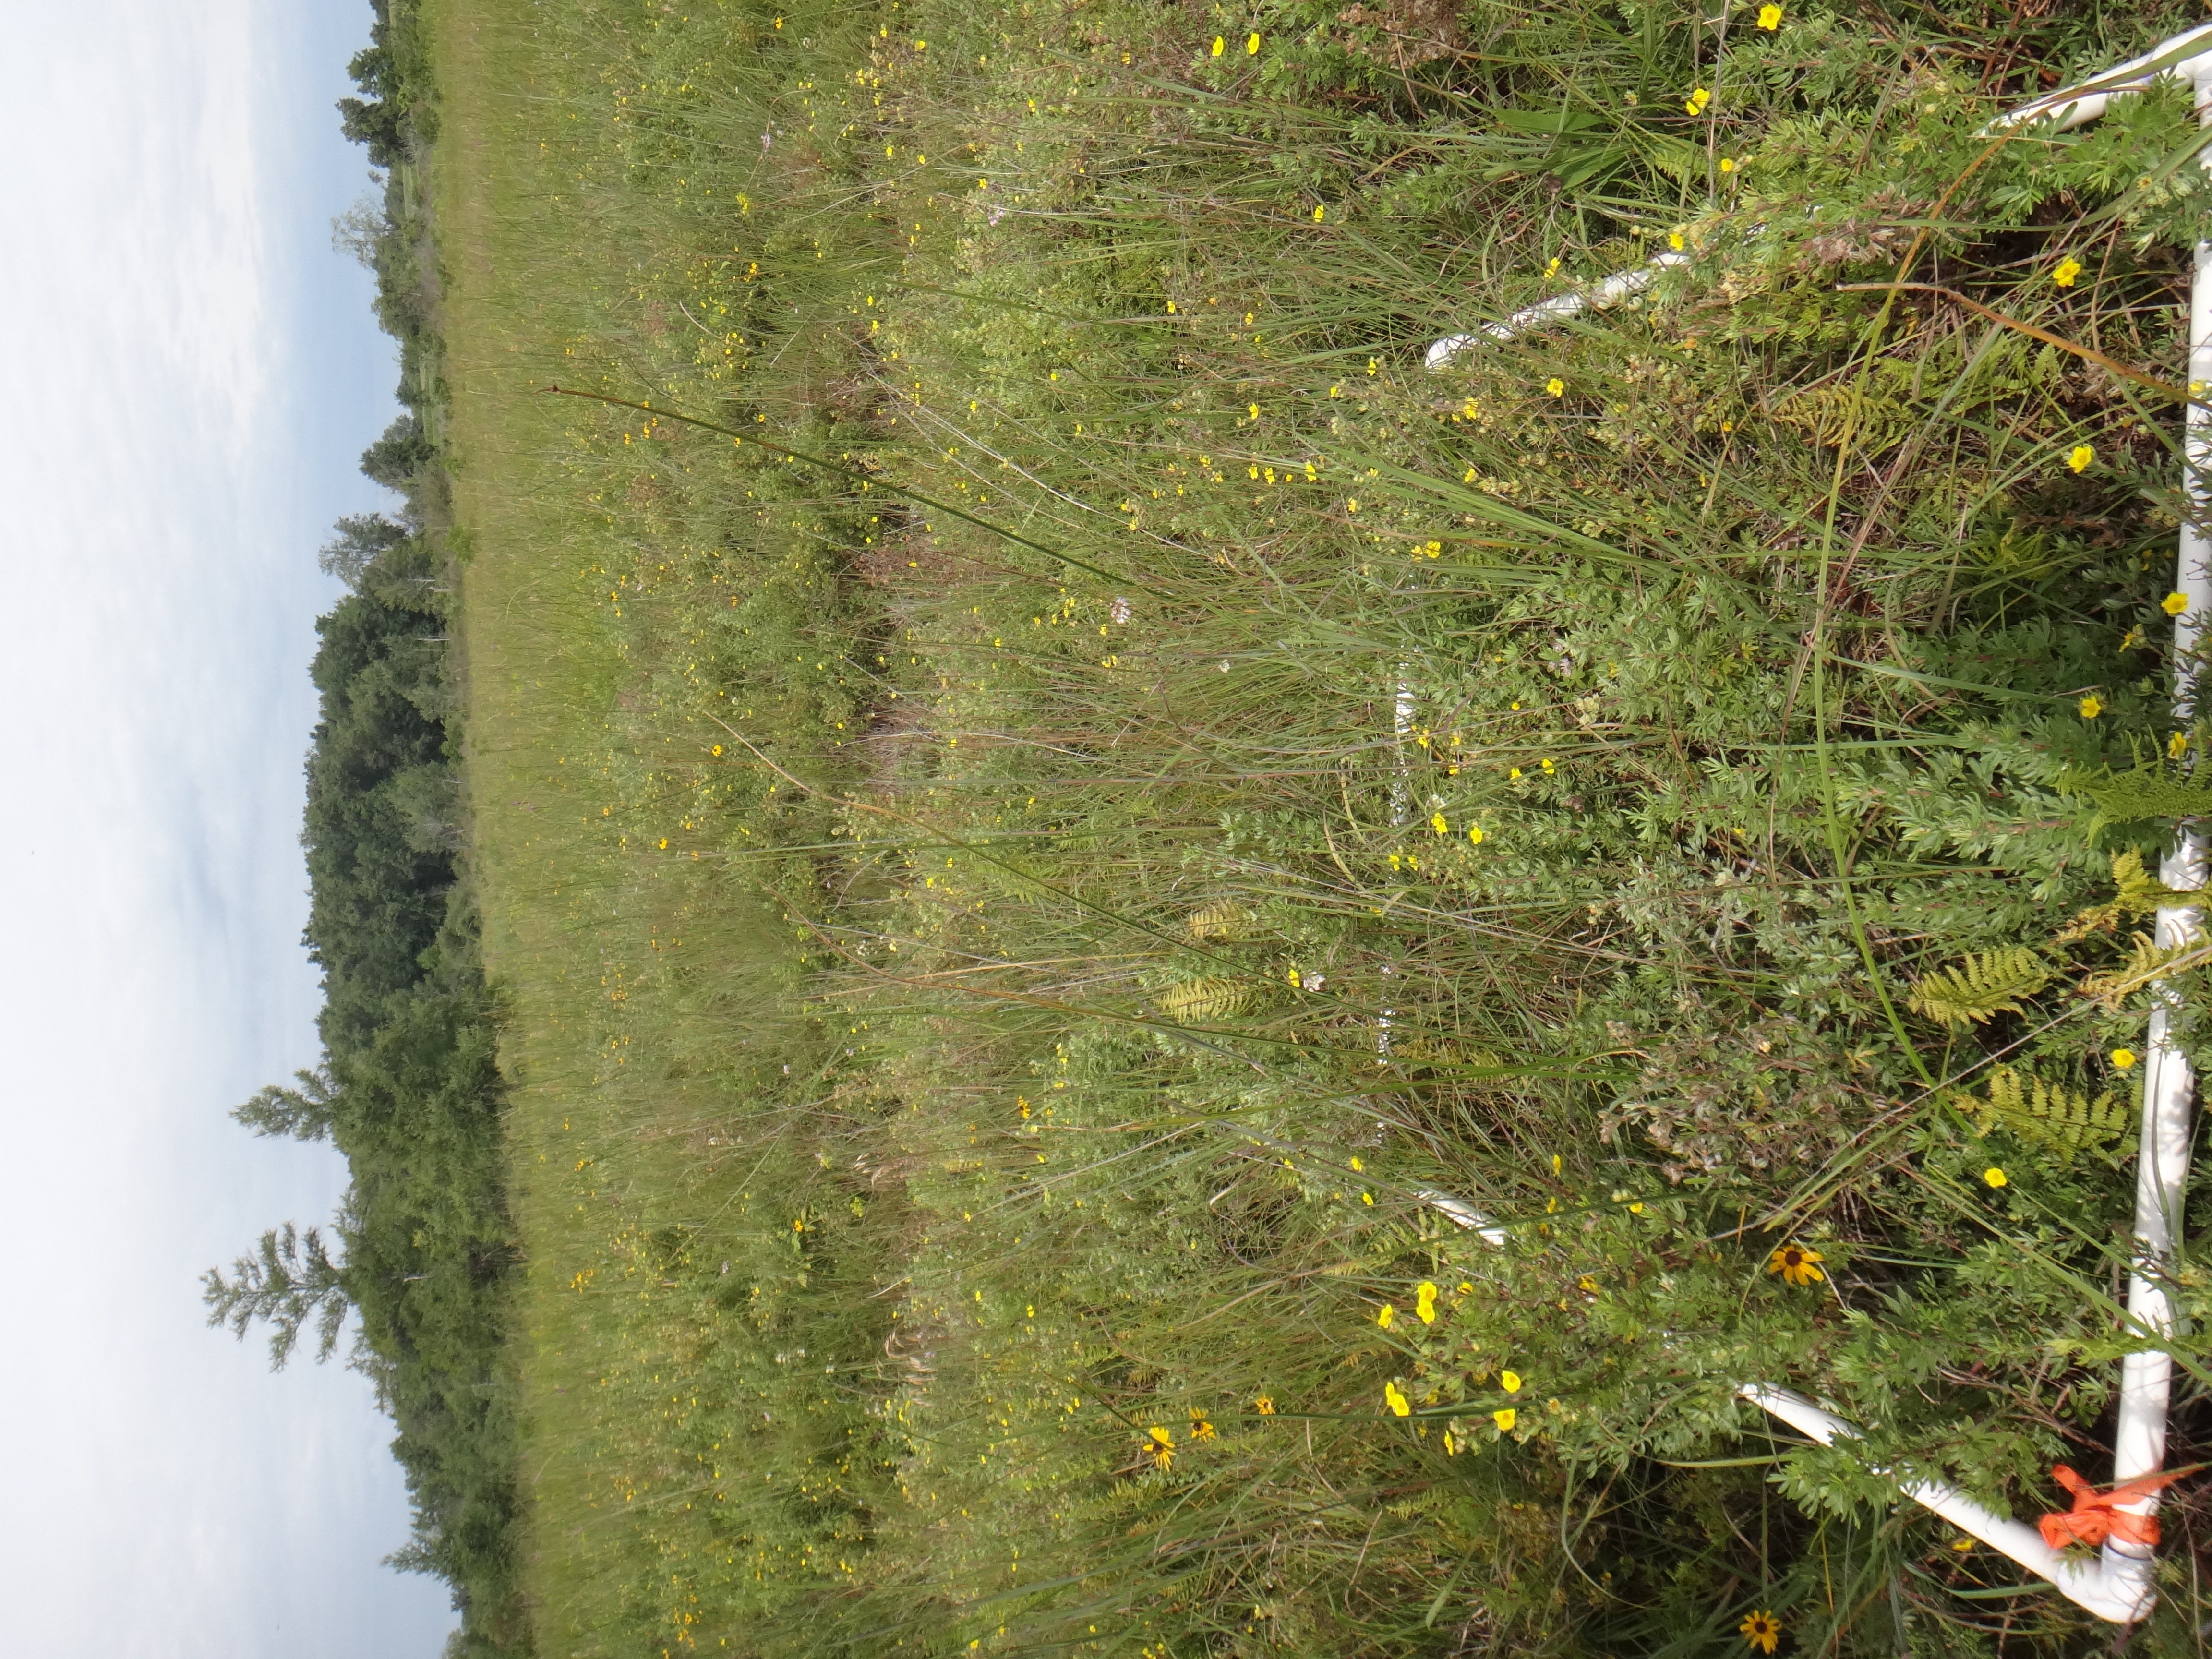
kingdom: Plantae
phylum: Tracheophyta
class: Liliopsida
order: Poales
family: Poaceae
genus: Bromus
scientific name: Bromus ciliatus
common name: Fringe brome
